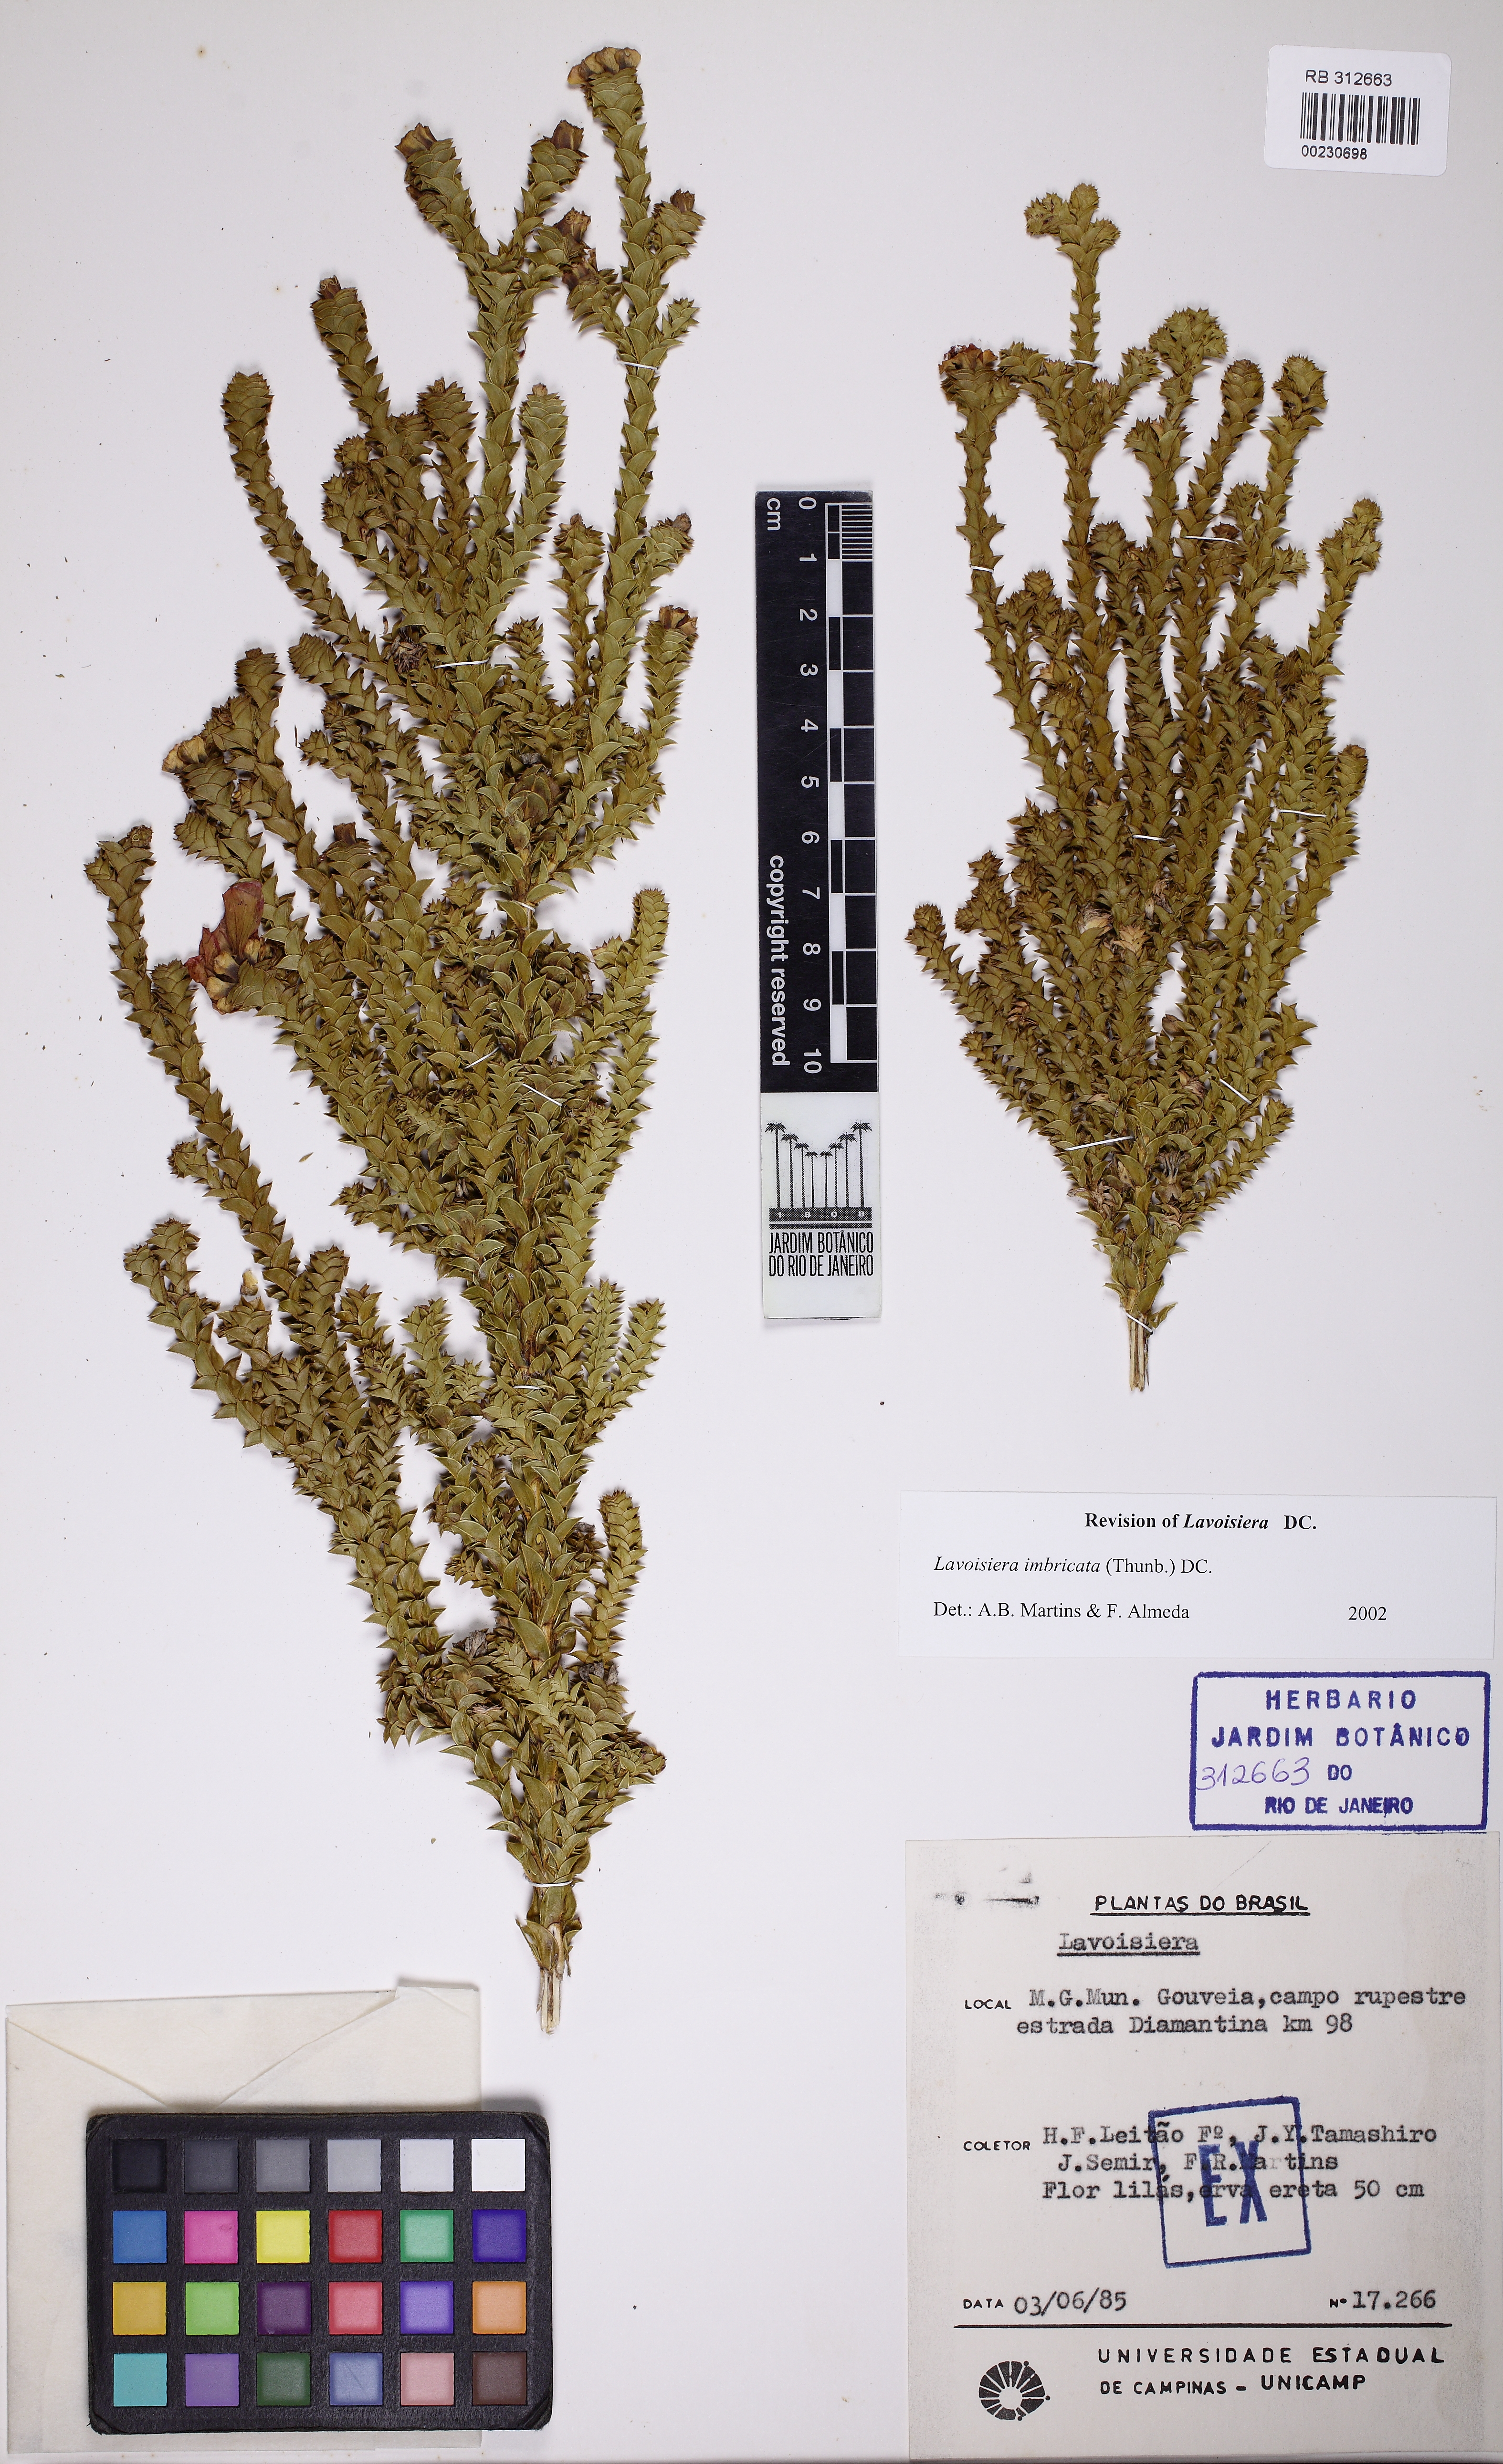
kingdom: Plantae
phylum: Tracheophyta
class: Magnoliopsida
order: Myrtales
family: Melastomataceae
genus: Microlicia
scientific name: Microlicia cataphracta
